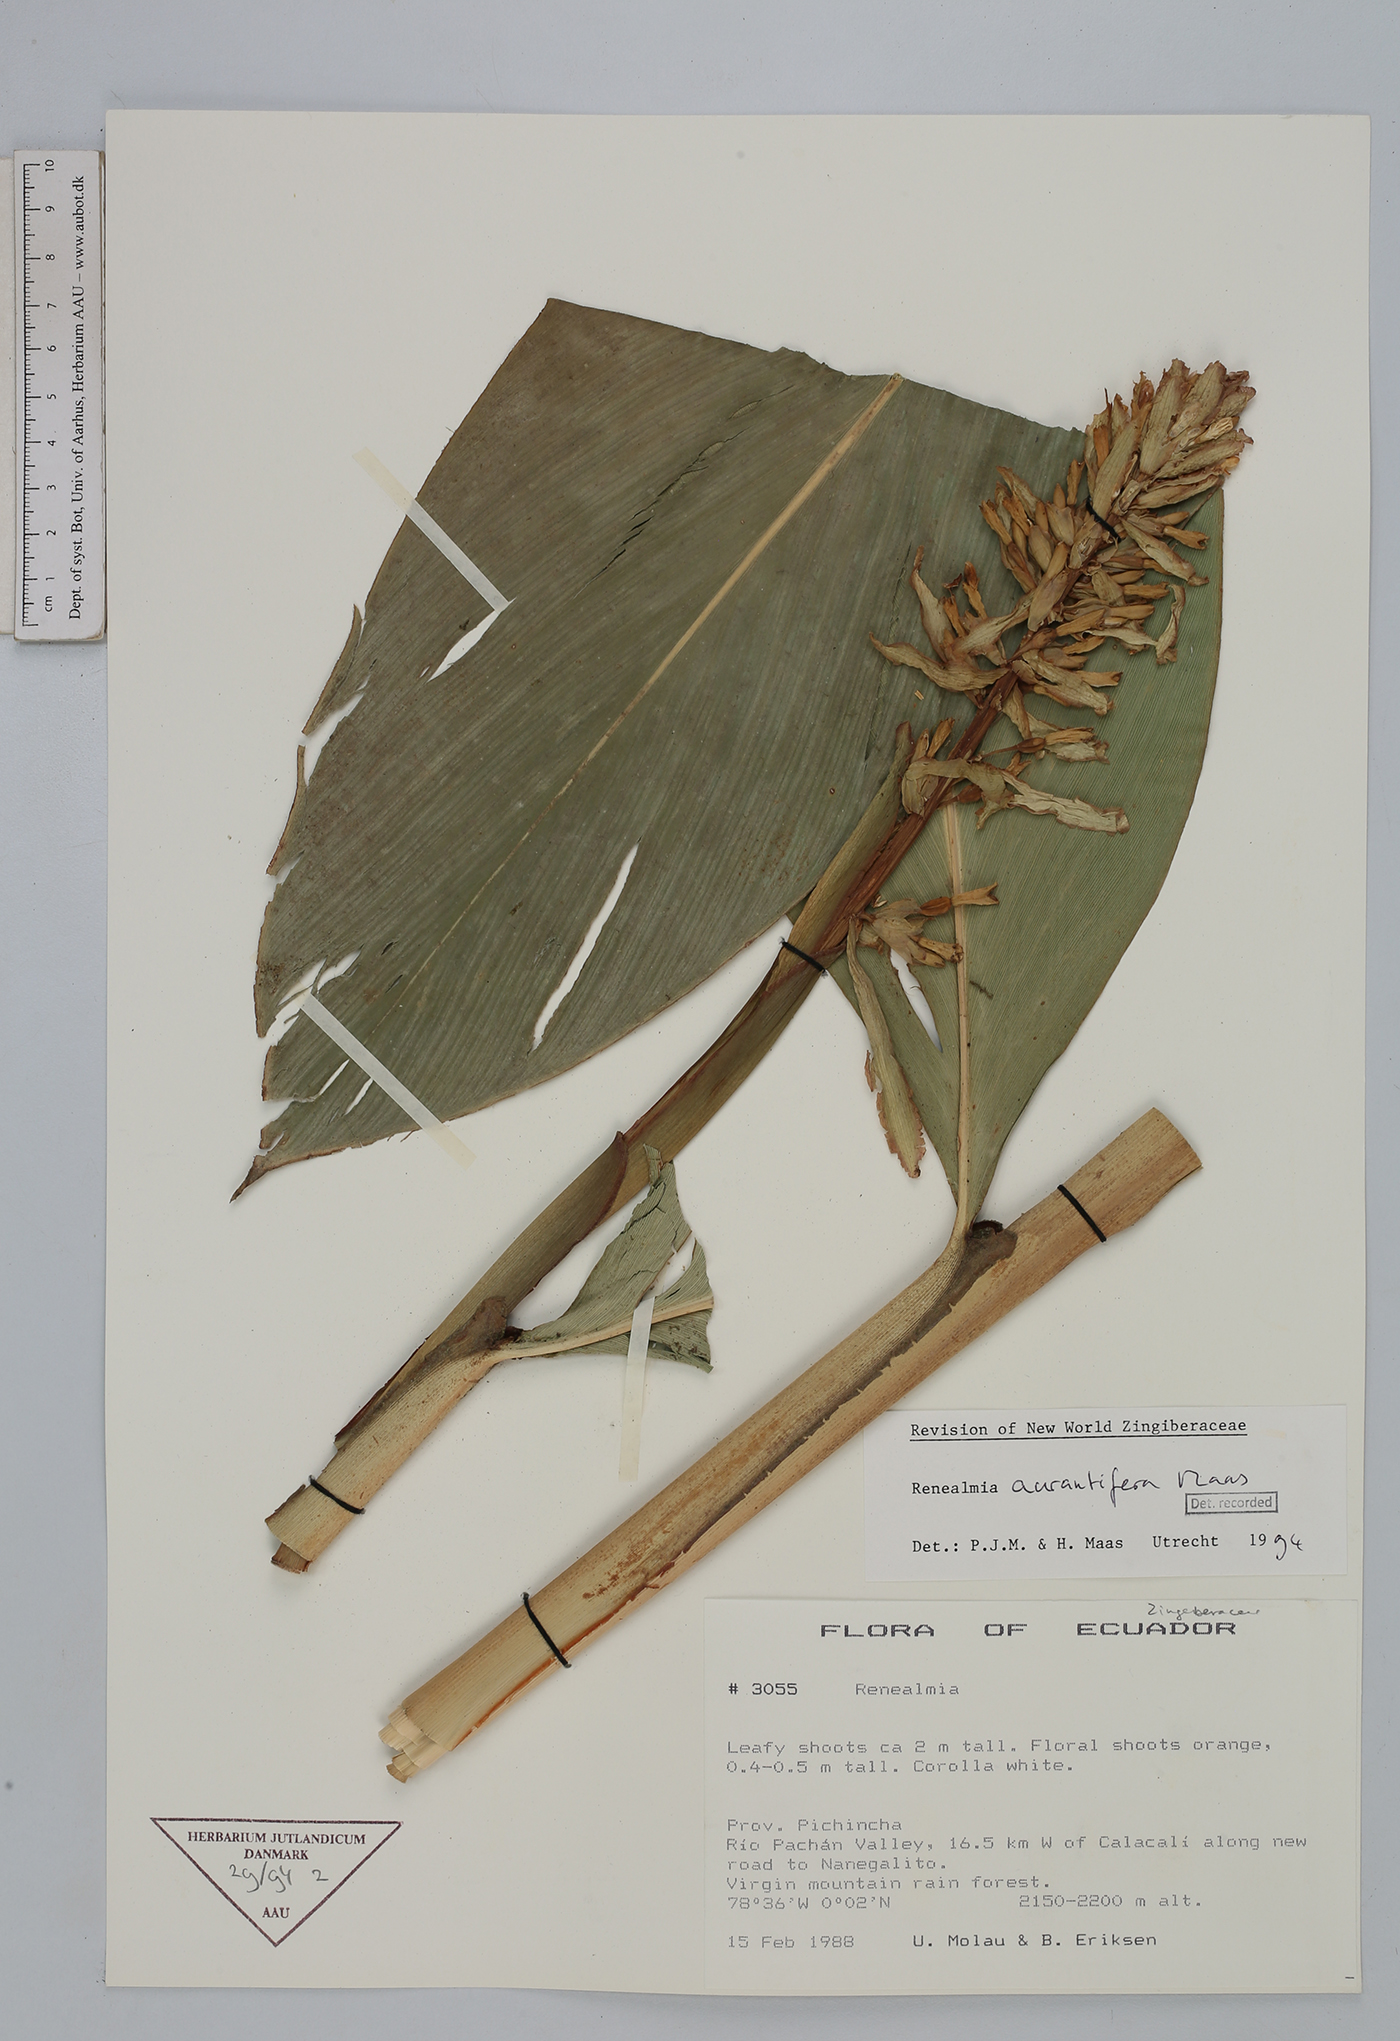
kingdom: Plantae
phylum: Tracheophyta
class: Liliopsida
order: Zingiberales
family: Zingiberaceae
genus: Renealmia
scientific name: Renealmia aurantiifera
